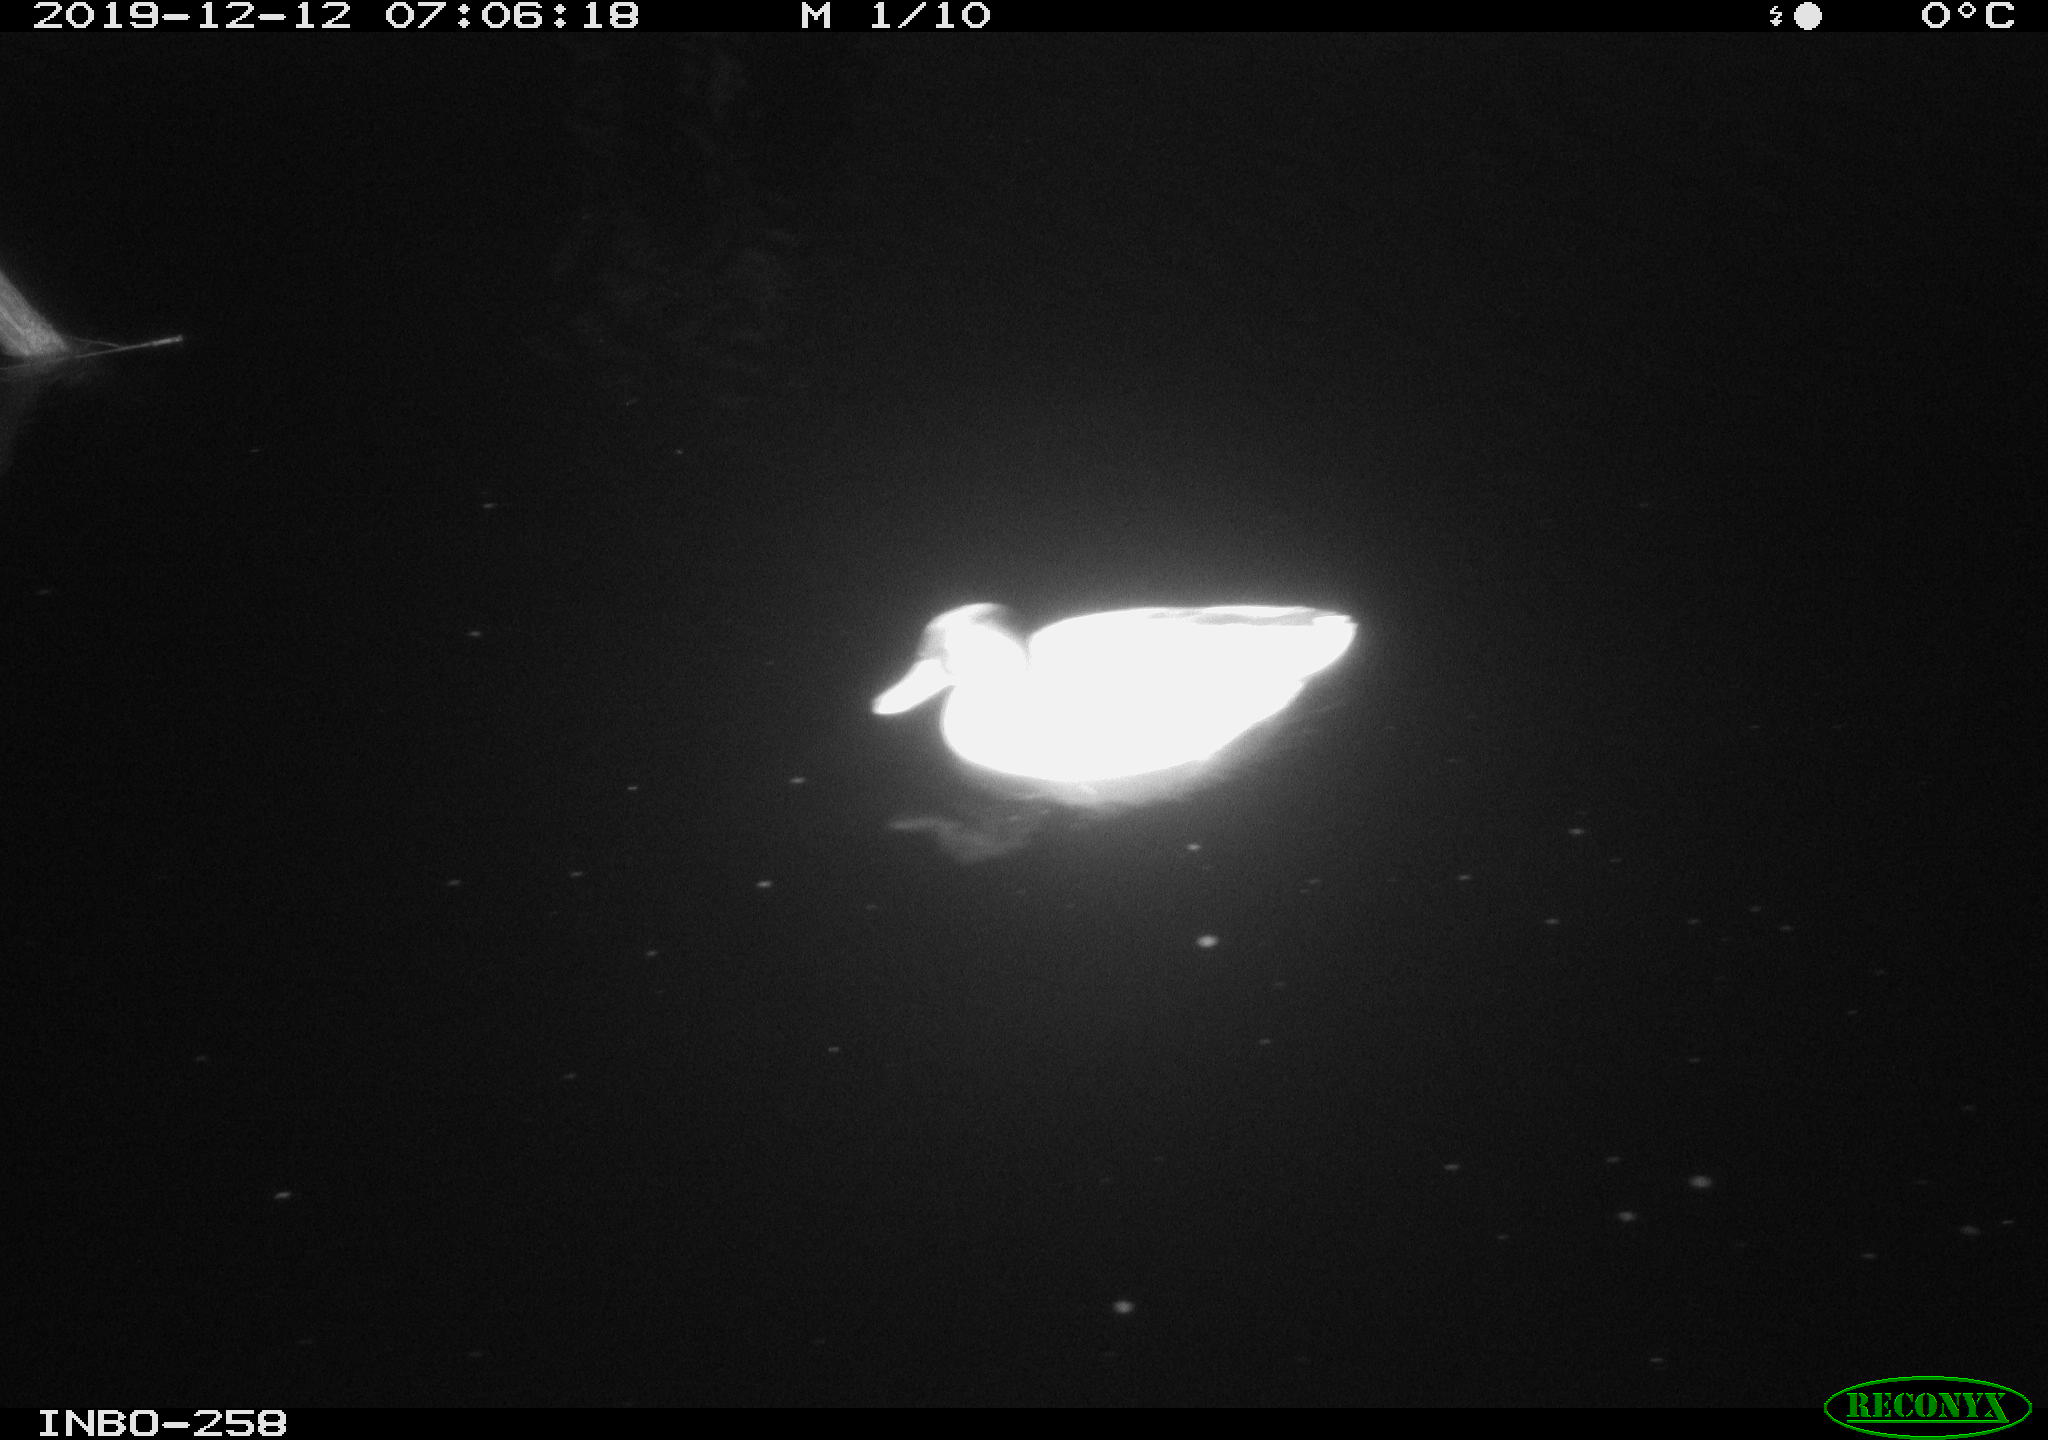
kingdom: Animalia
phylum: Chordata
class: Aves
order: Anseriformes
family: Anatidae
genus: Anas
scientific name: Anas platyrhynchos
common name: Mallard
